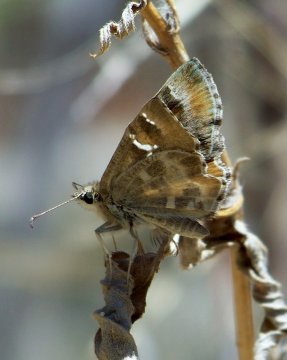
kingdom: Animalia
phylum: Arthropoda
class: Insecta
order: Lepidoptera
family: Hesperiidae
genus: Systasea
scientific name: Systasea zampa
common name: Arizona Powdered-Skipper
